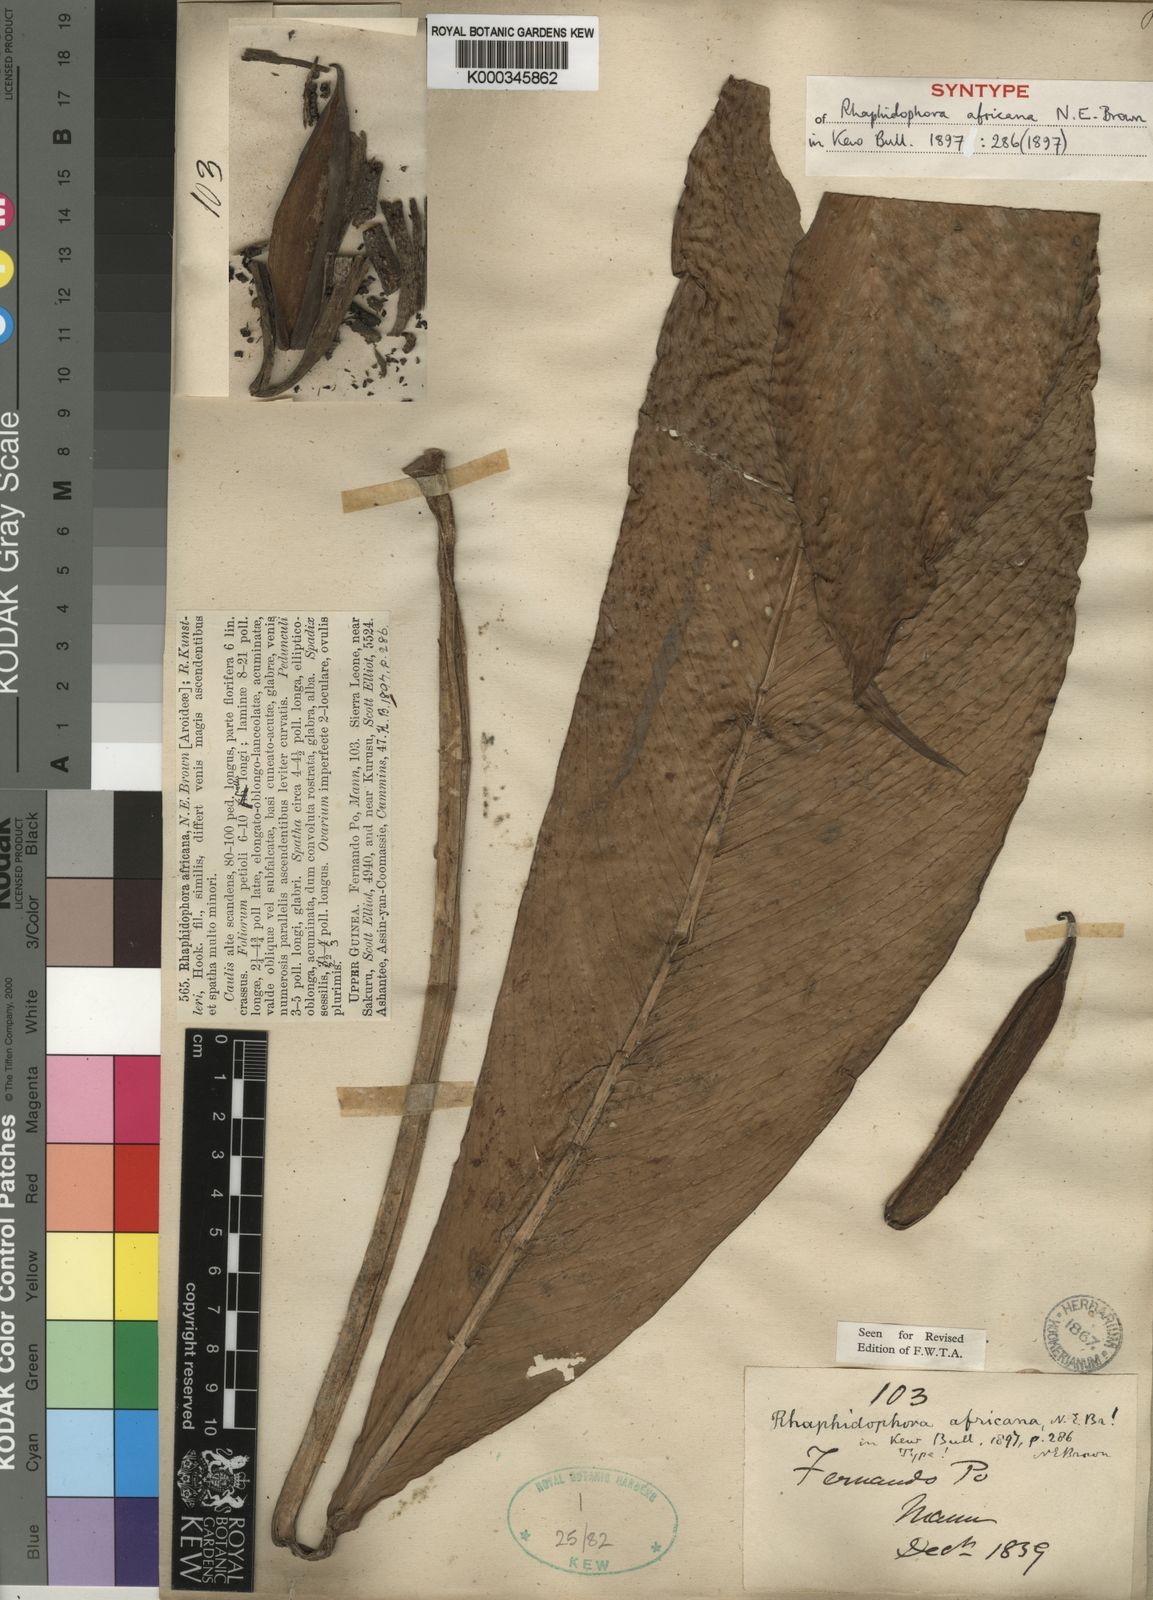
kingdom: Plantae
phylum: Tracheophyta
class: Liliopsida
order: Alismatales
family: Araceae
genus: Rhaphidophora
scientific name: Rhaphidophora africana
